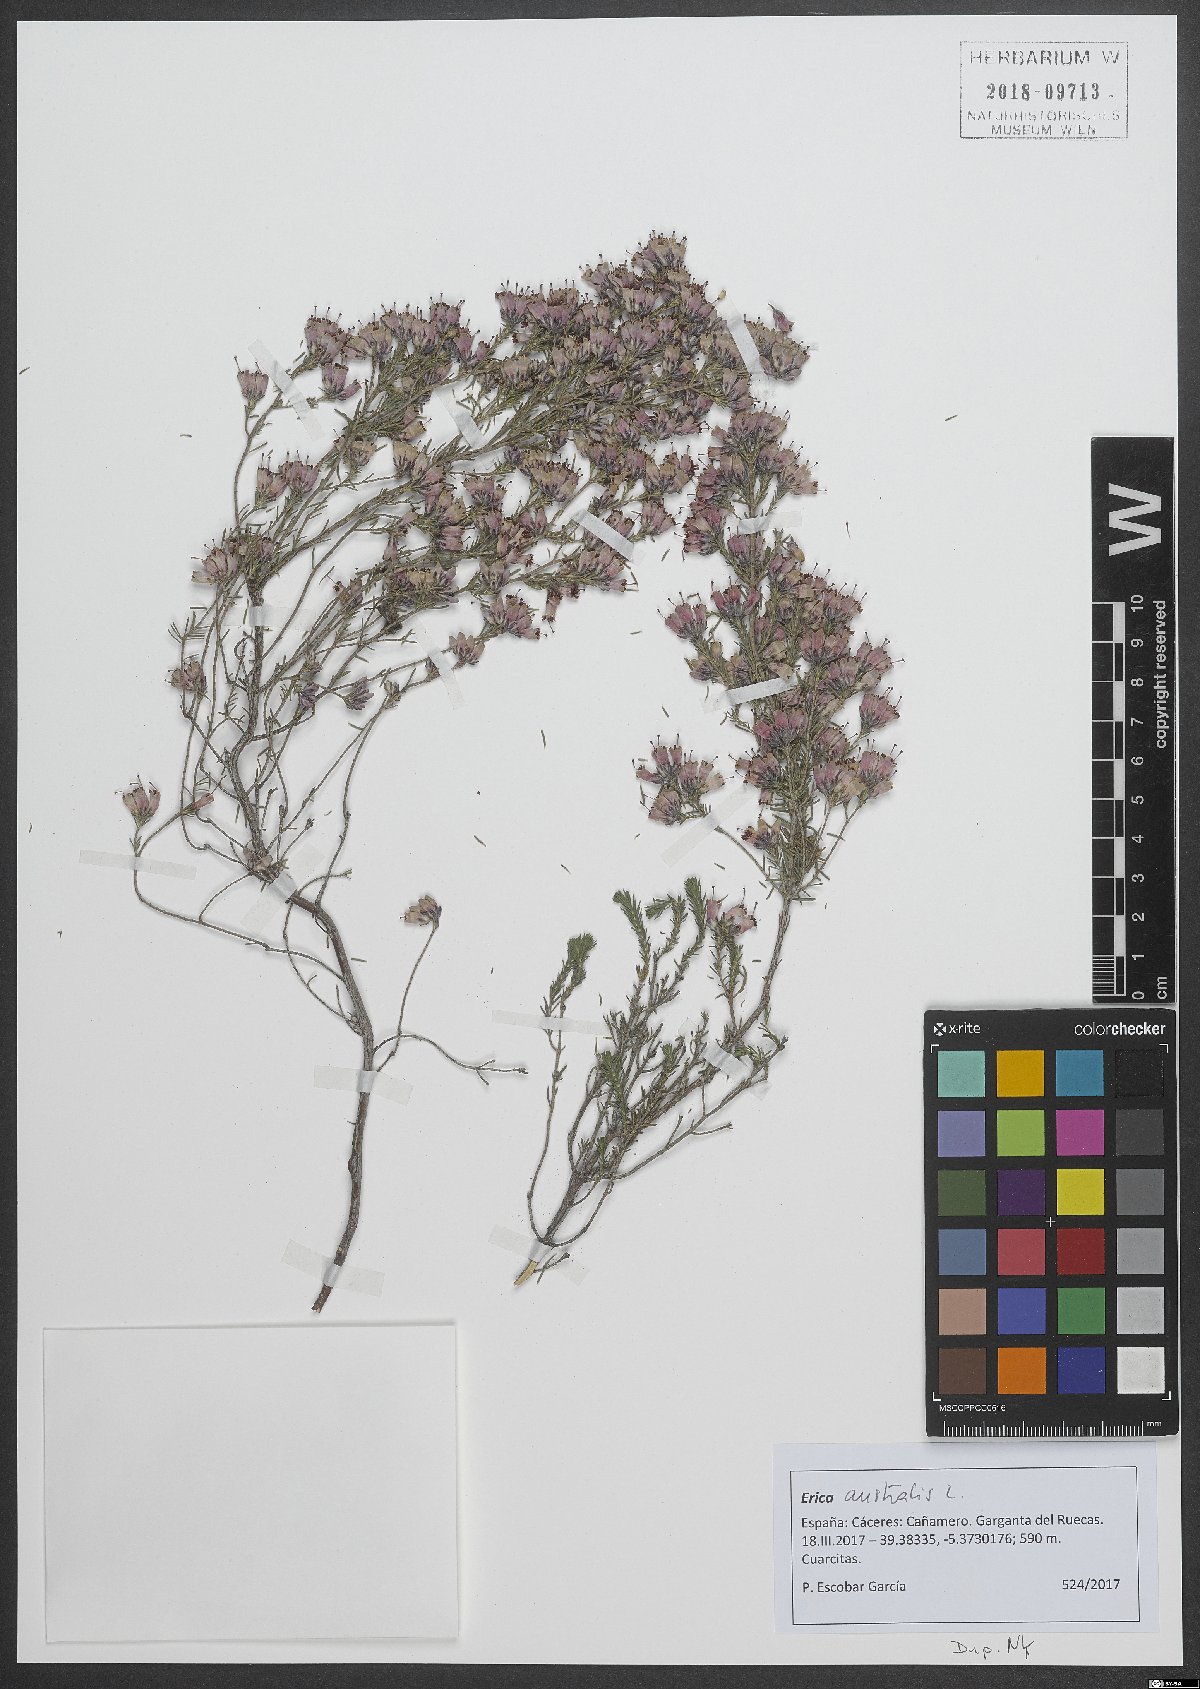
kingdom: Plantae
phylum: Tracheophyta
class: Magnoliopsida
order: Ericales
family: Ericaceae
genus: Erica
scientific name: Erica australis
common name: Spanish heath
